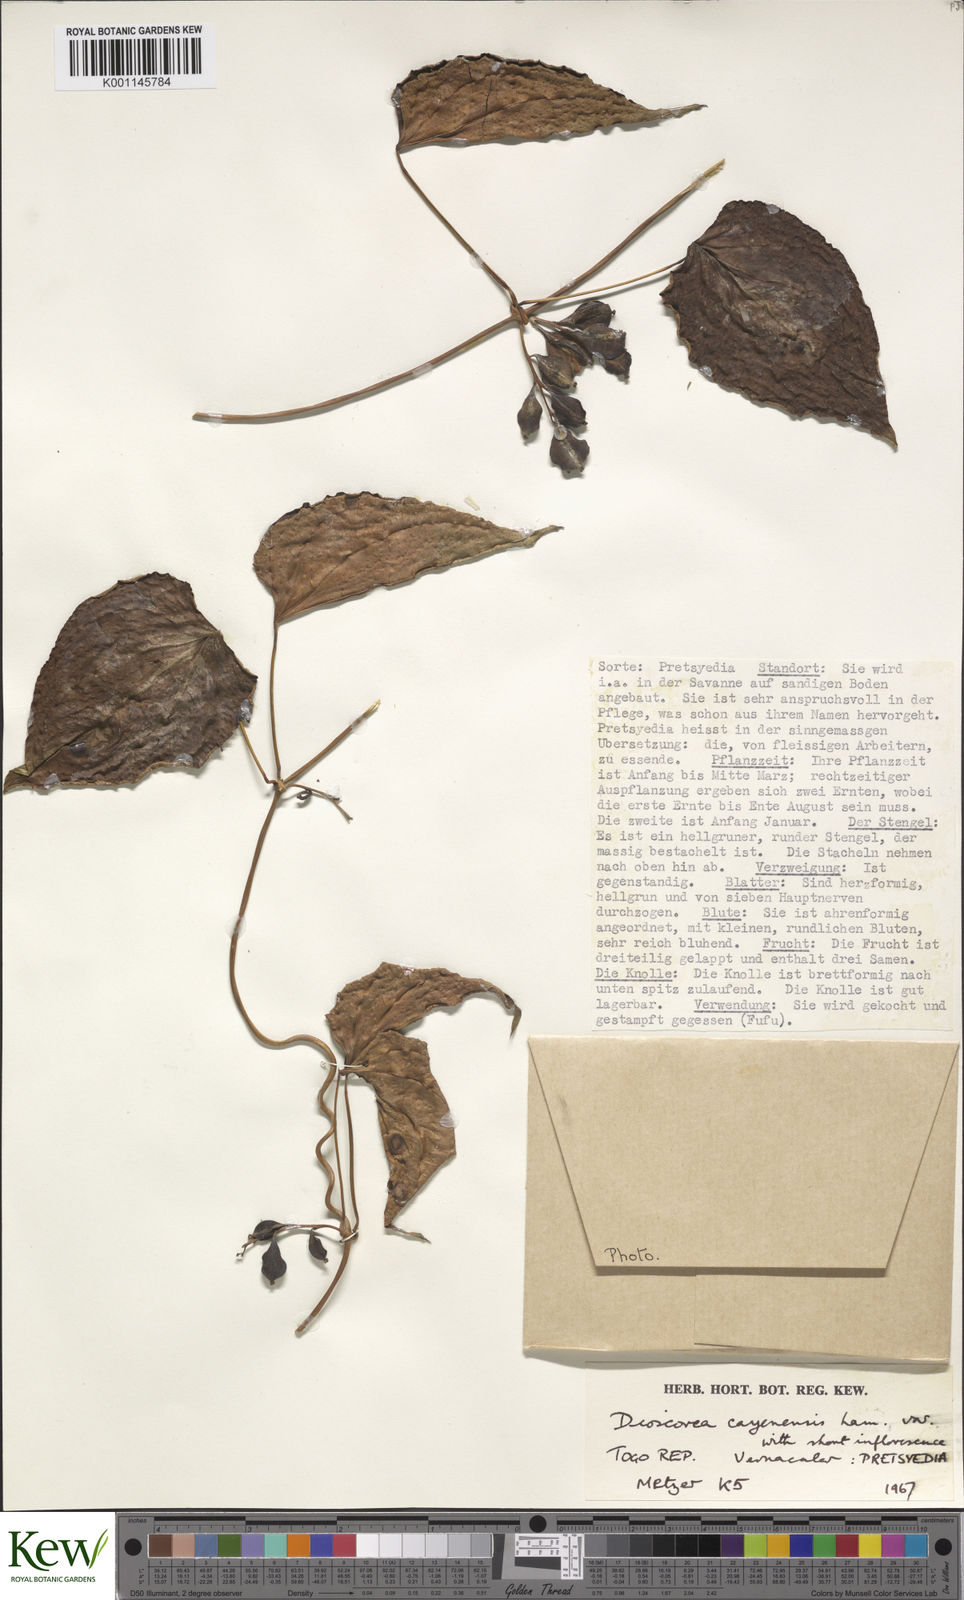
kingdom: Plantae
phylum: Tracheophyta
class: Liliopsida
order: Dioscoreales
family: Dioscoreaceae
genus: Dioscorea
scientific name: Dioscorea cayenensis
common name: Attoto yam
